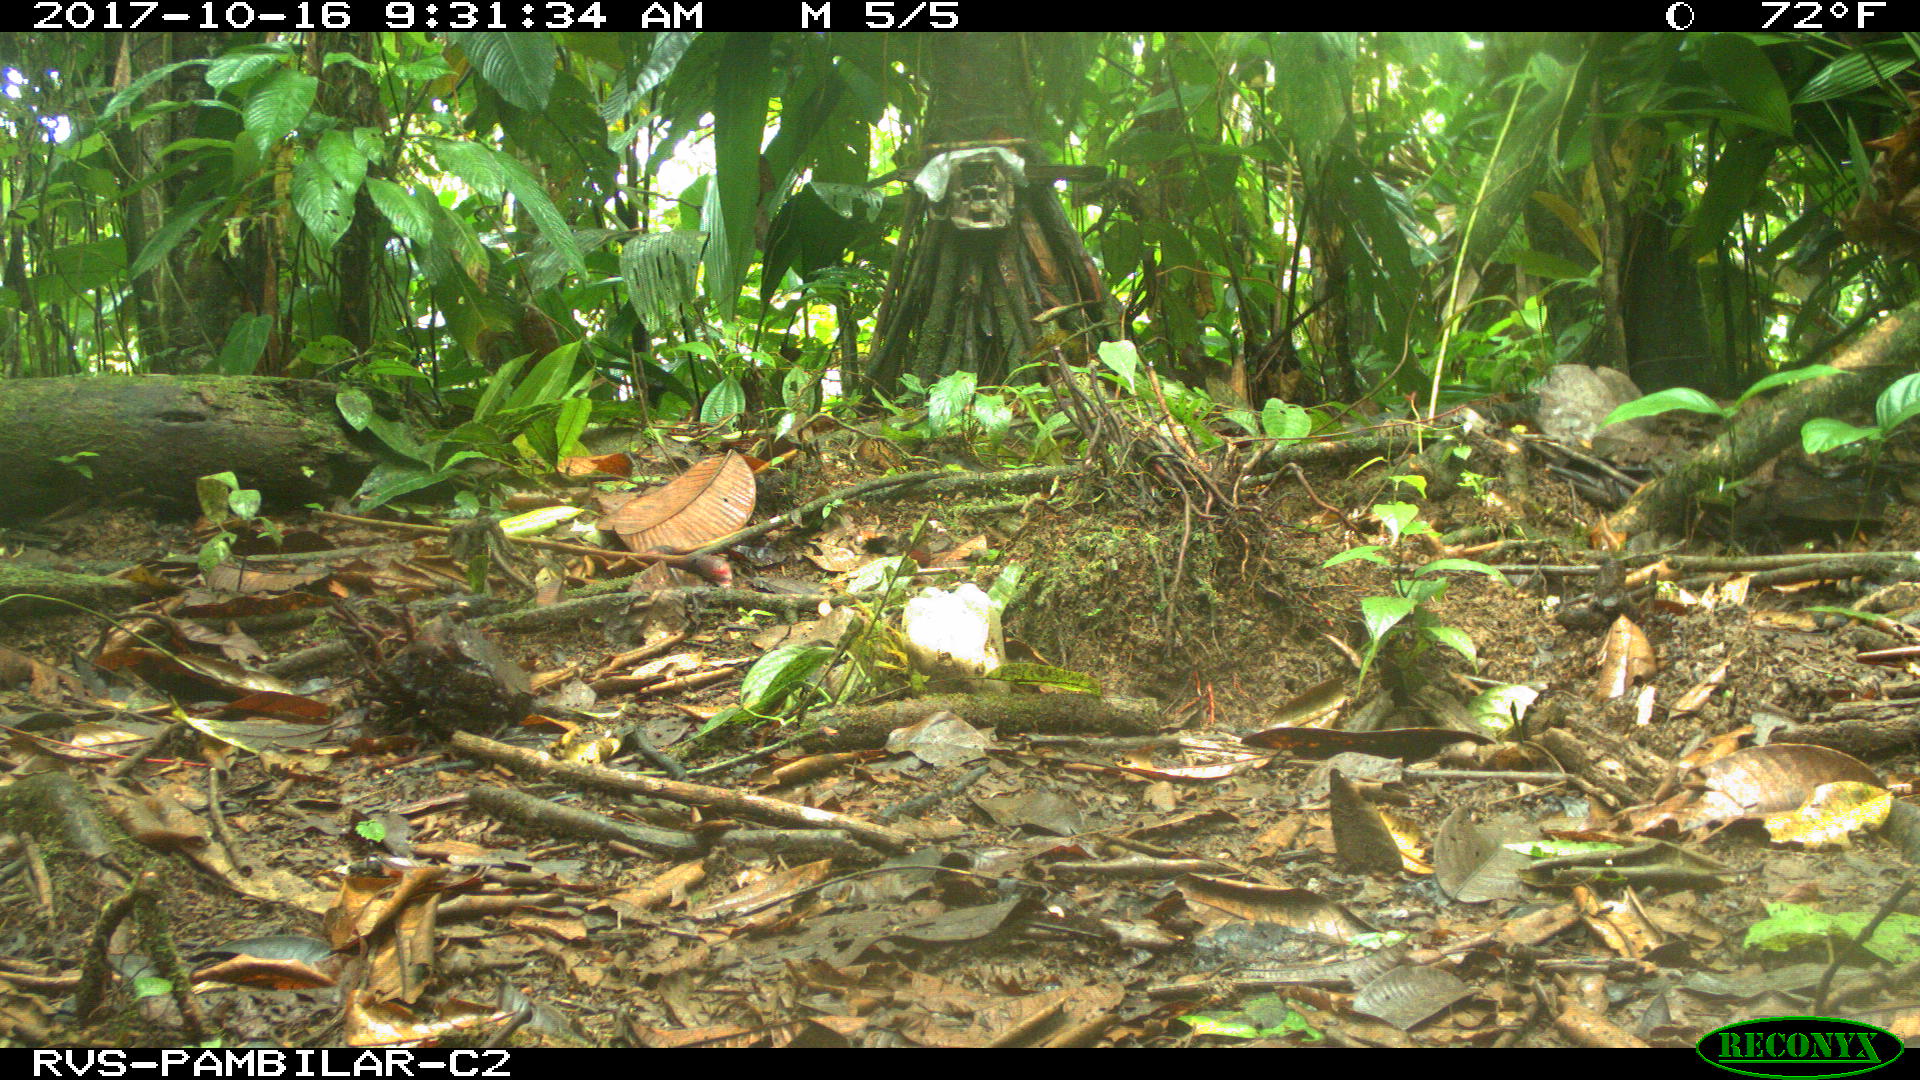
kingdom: Animalia
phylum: Chordata
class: Mammalia
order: Rodentia
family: Sciuridae
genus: Sciurus
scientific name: Sciurus granatensis
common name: Red-tailed squirrel
